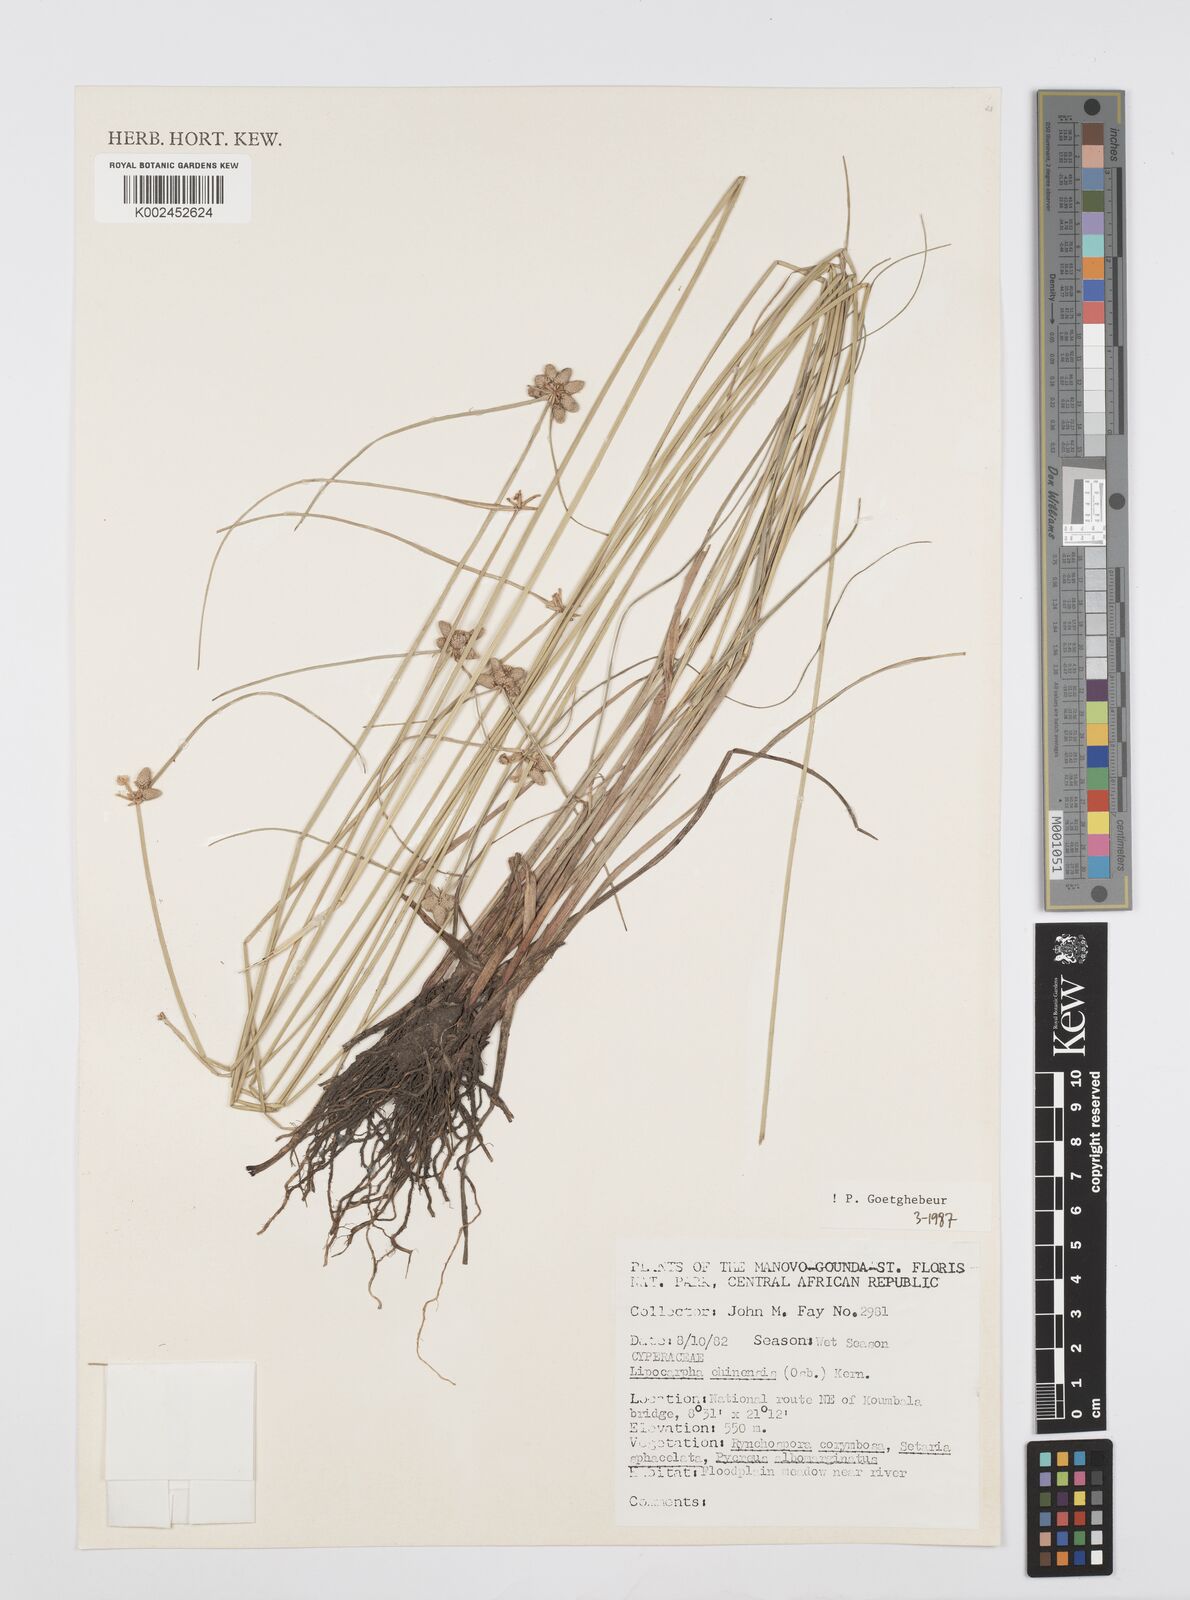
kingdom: Plantae
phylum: Tracheophyta
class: Liliopsida
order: Poales
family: Cyperaceae
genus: Cyperus
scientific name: Cyperus albescens
